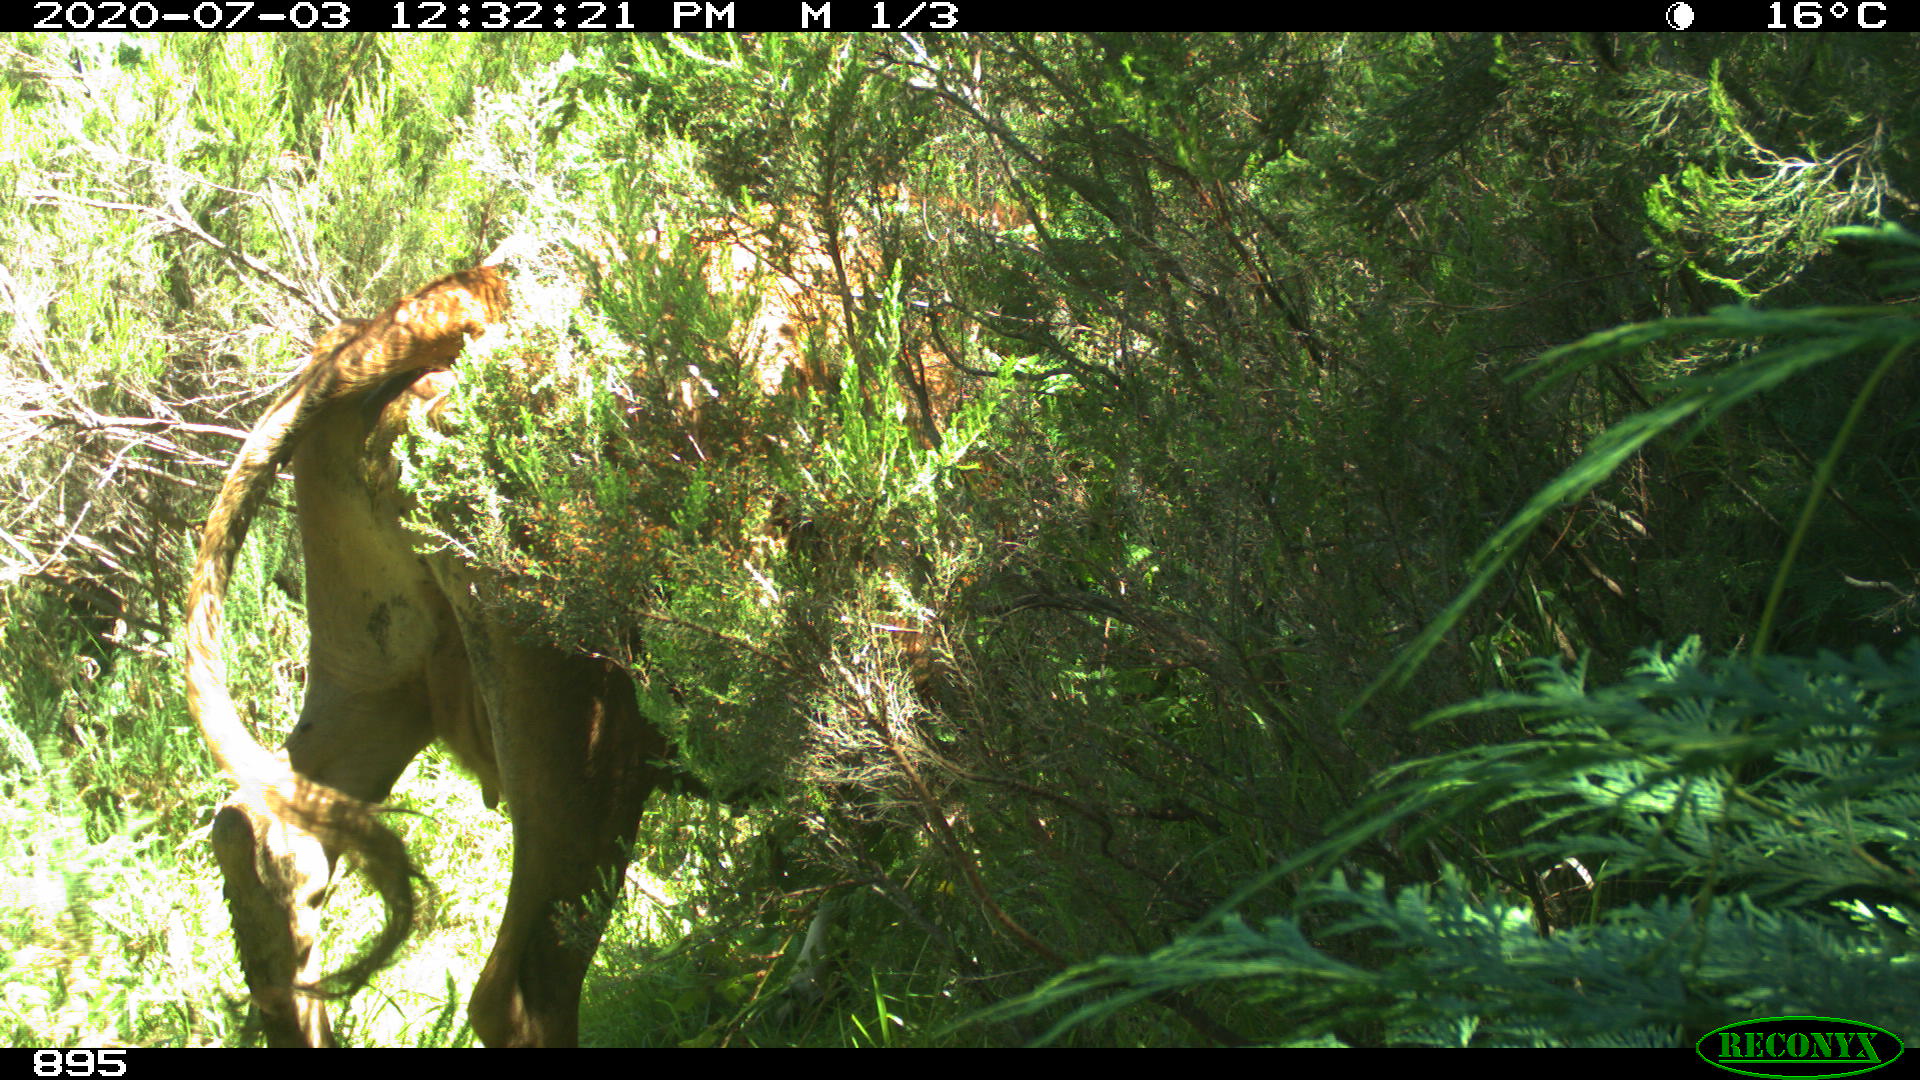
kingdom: Animalia
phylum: Chordata
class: Mammalia
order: Artiodactyla
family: Bovidae
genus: Bos
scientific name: Bos taurus
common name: Domesticated cattle
